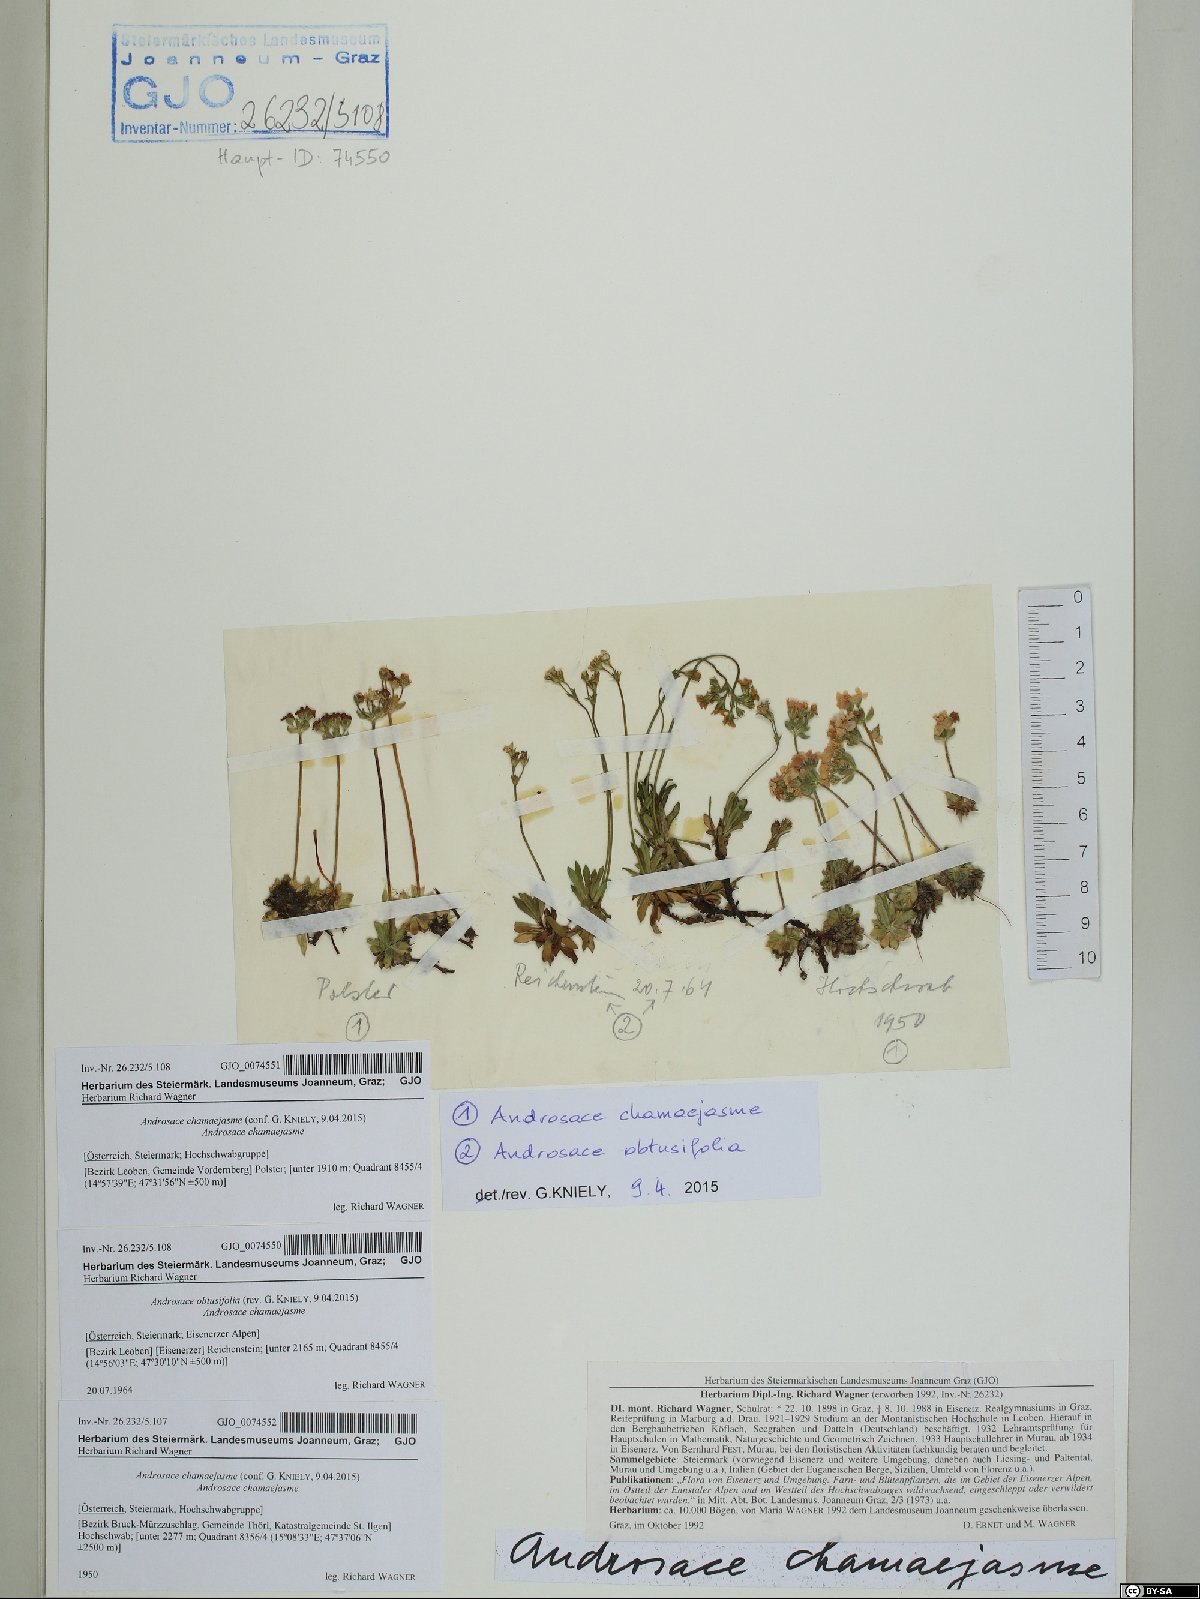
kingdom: Plantae
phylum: Tracheophyta
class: Magnoliopsida
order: Ericales
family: Primulaceae
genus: Androsace
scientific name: Androsace chamaejasme
